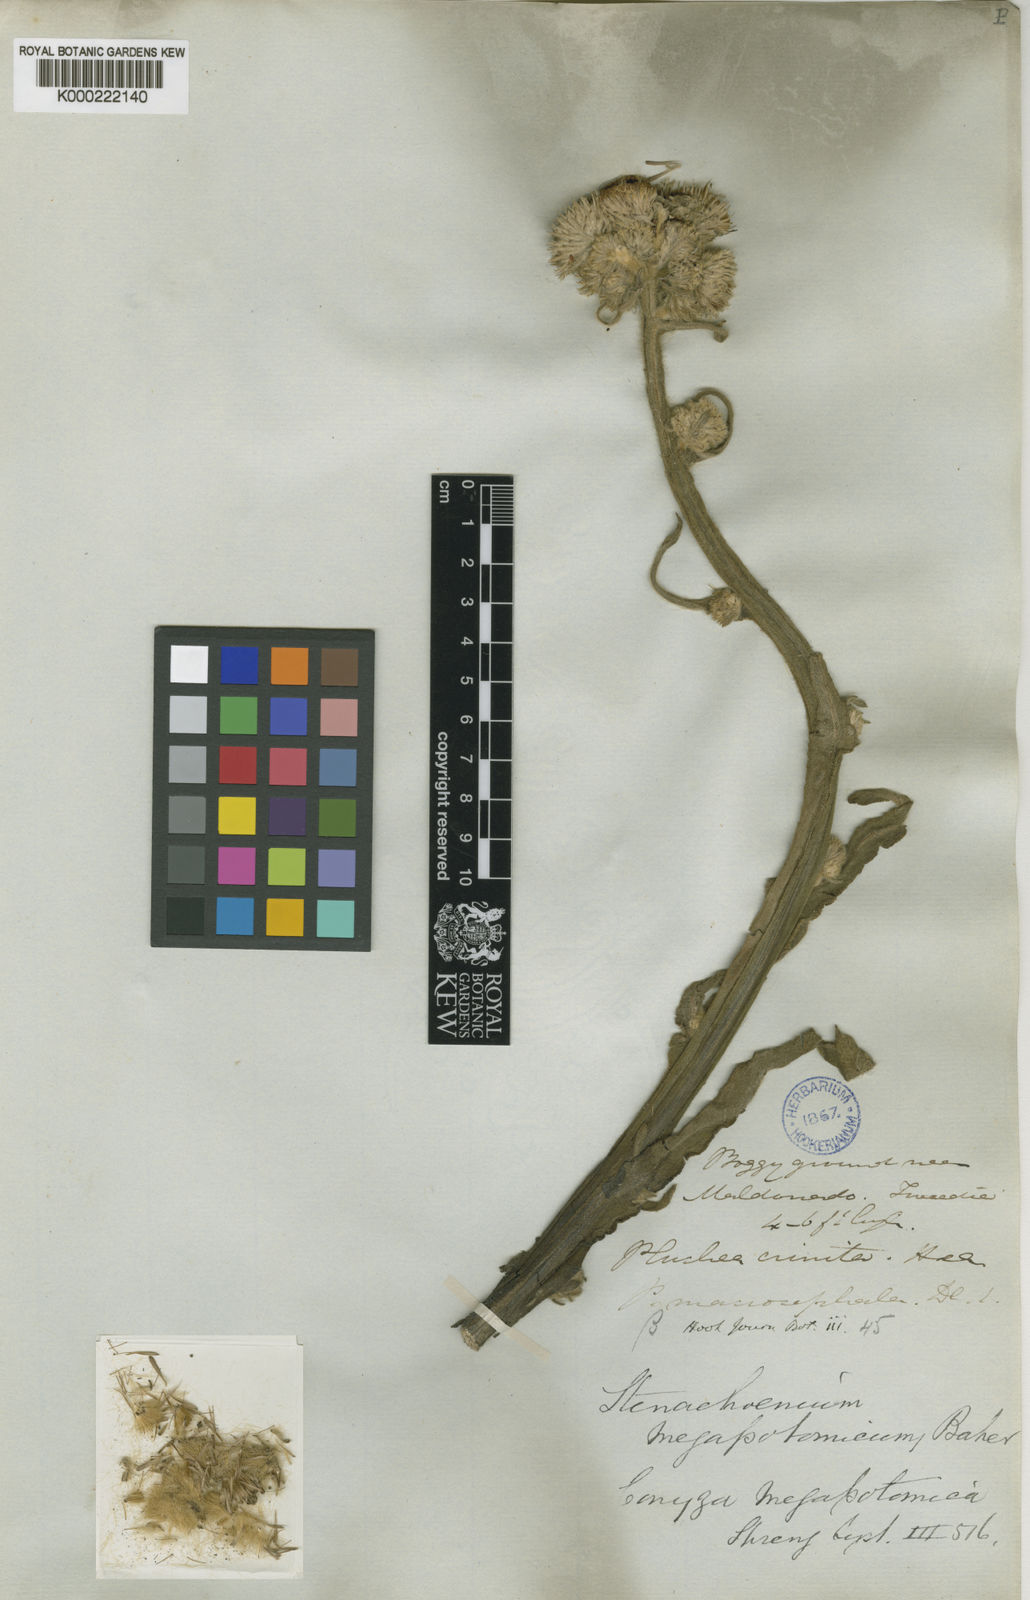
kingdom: Plantae
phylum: Tracheophyta
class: Magnoliopsida
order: Asterales
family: Asteraceae
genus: Stenachaenium
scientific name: Stenachaenium megapotamicum
